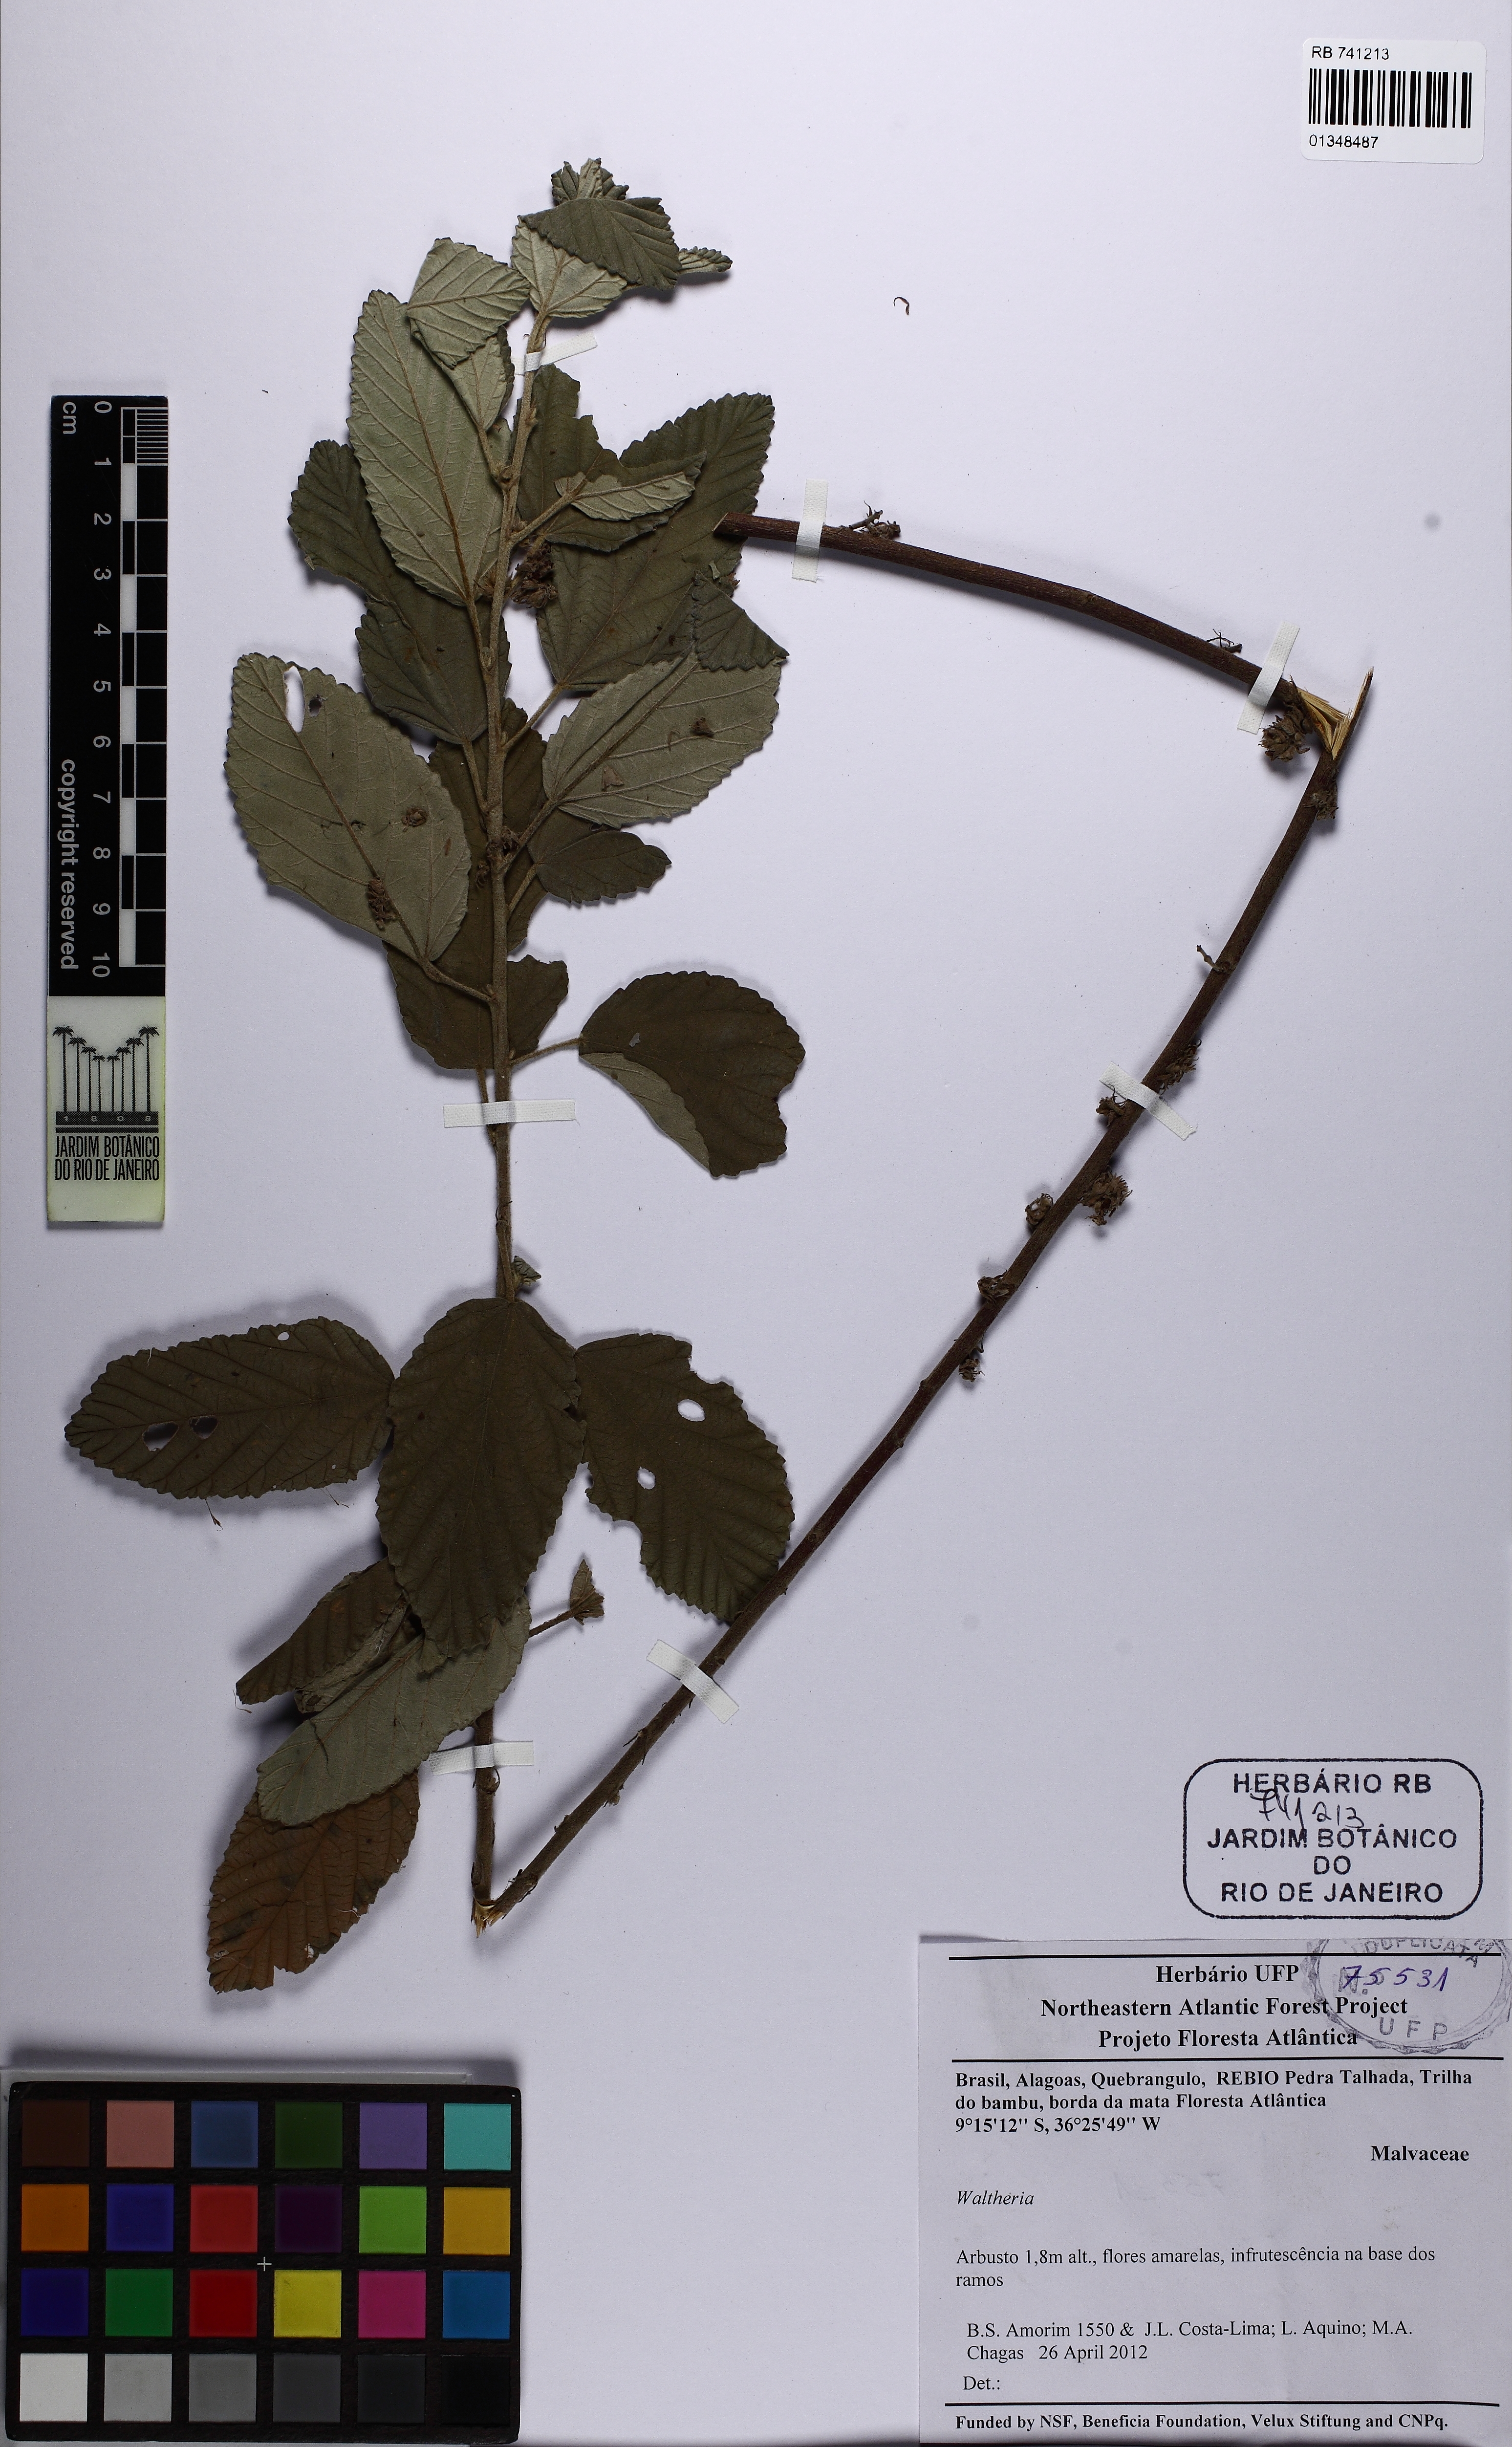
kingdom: Plantae
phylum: Tracheophyta
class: Magnoliopsida
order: Malvales
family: Malvaceae
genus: Waltheria
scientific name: Waltheria indica
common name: Leather-coat
